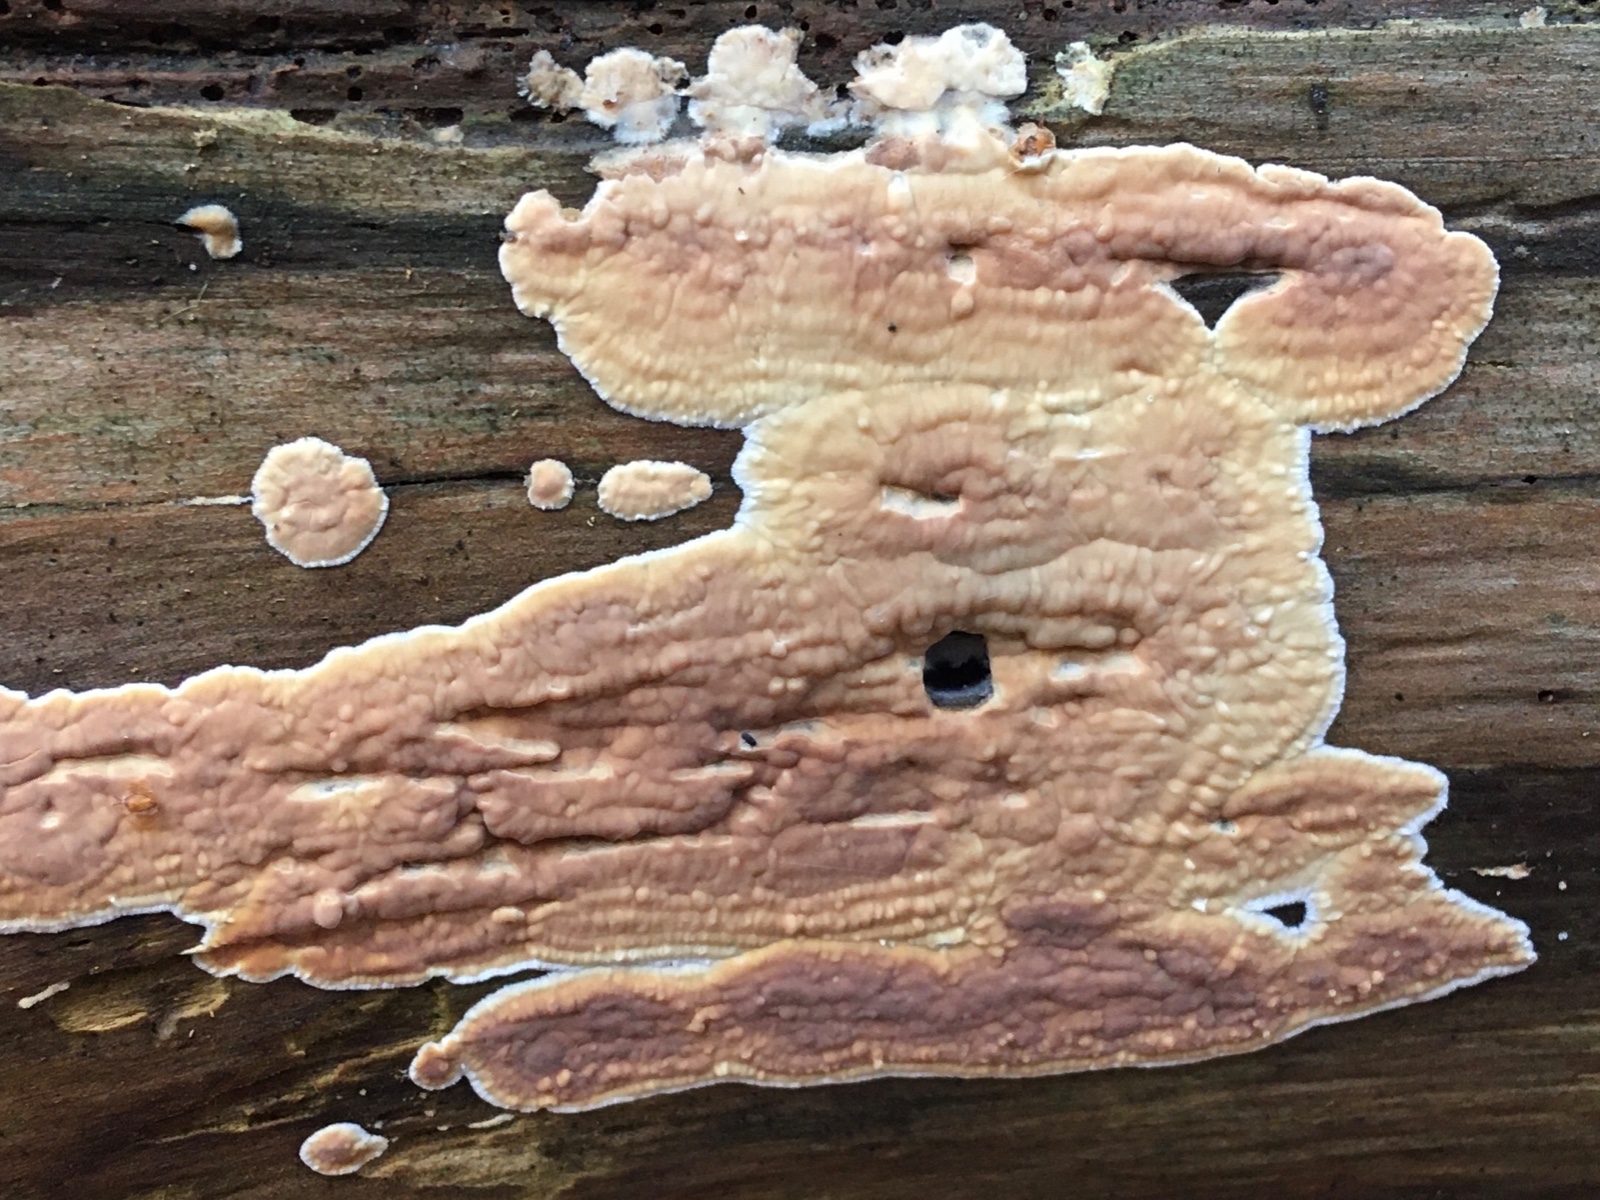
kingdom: Fungi
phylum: Basidiomycota
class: Agaricomycetes
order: Polyporales
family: Dacryobolaceae
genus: Dacryobolus
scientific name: Dacryobolus karstenii
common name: glat vulkanskorpe
